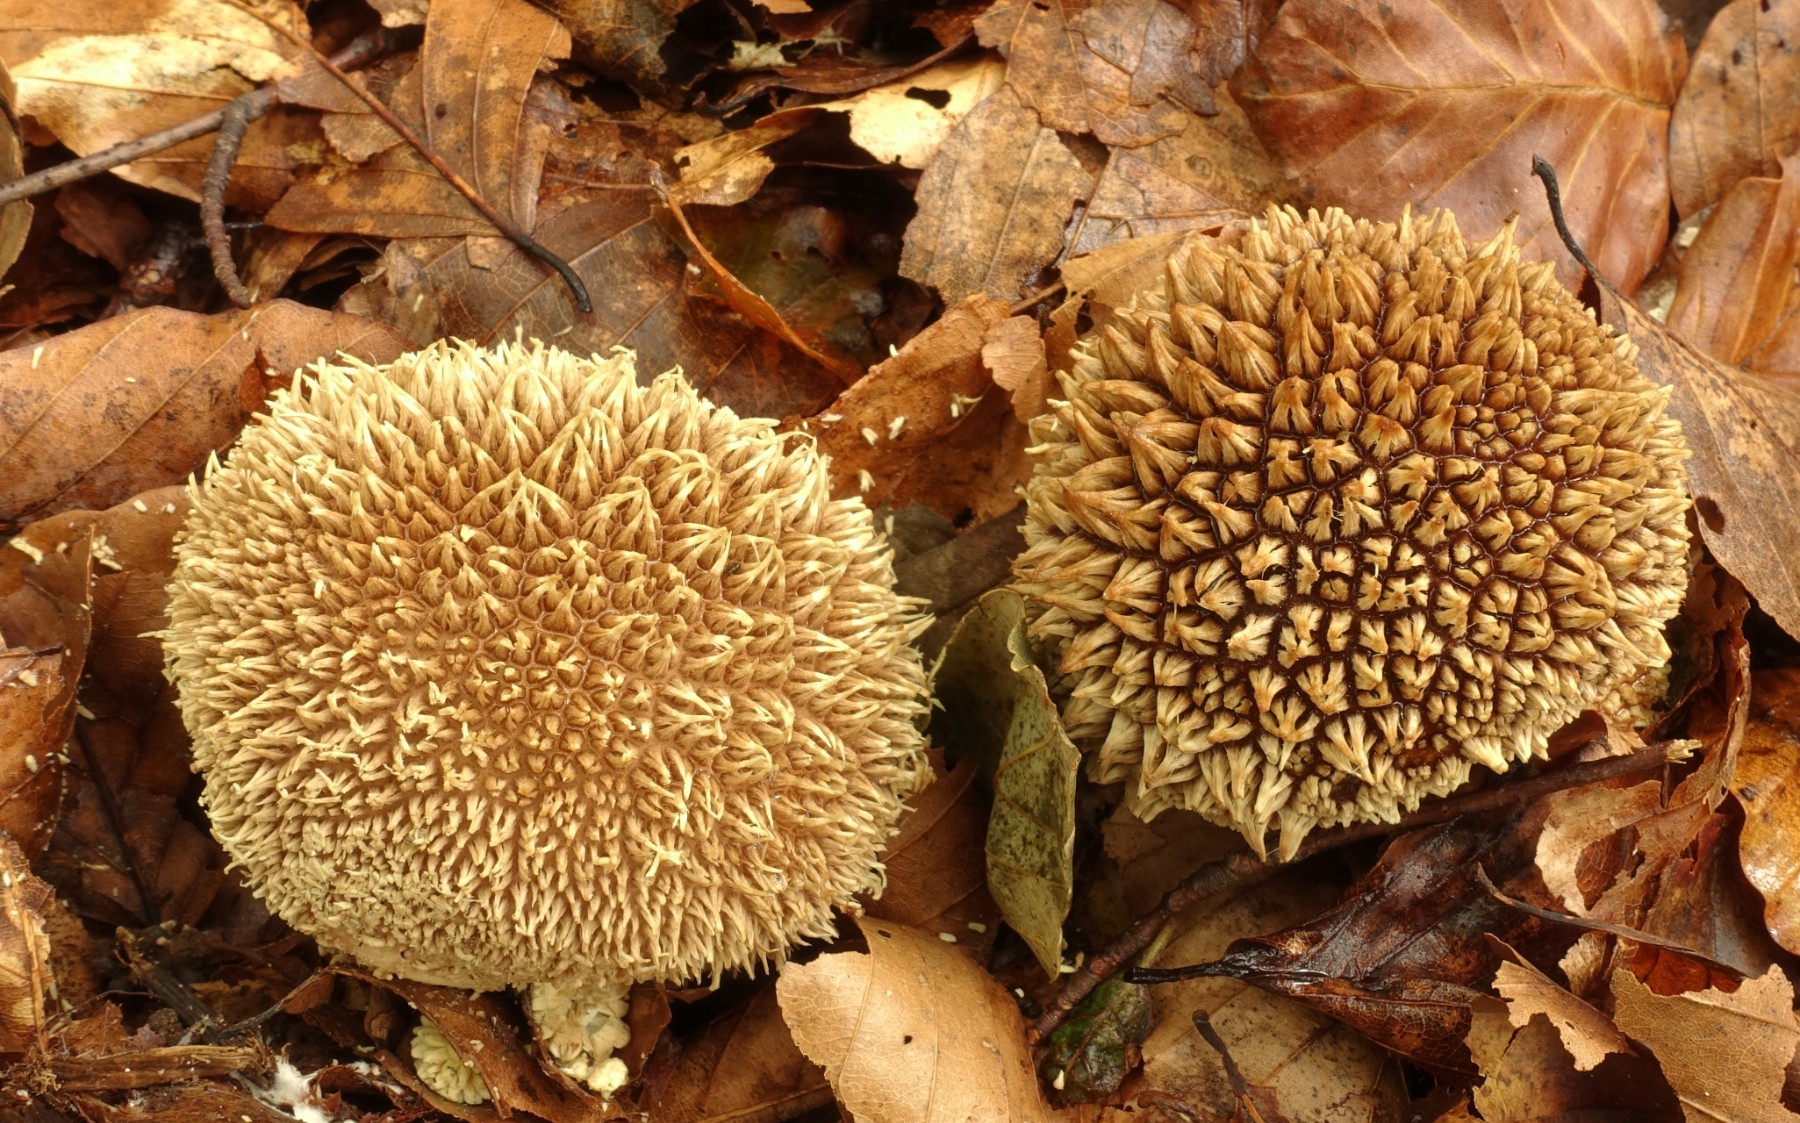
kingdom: Fungi
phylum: Basidiomycota
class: Agaricomycetes
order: Agaricales
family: Lycoperdaceae
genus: Lycoperdon
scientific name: Lycoperdon echinatum
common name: pindsvine-støvbold
